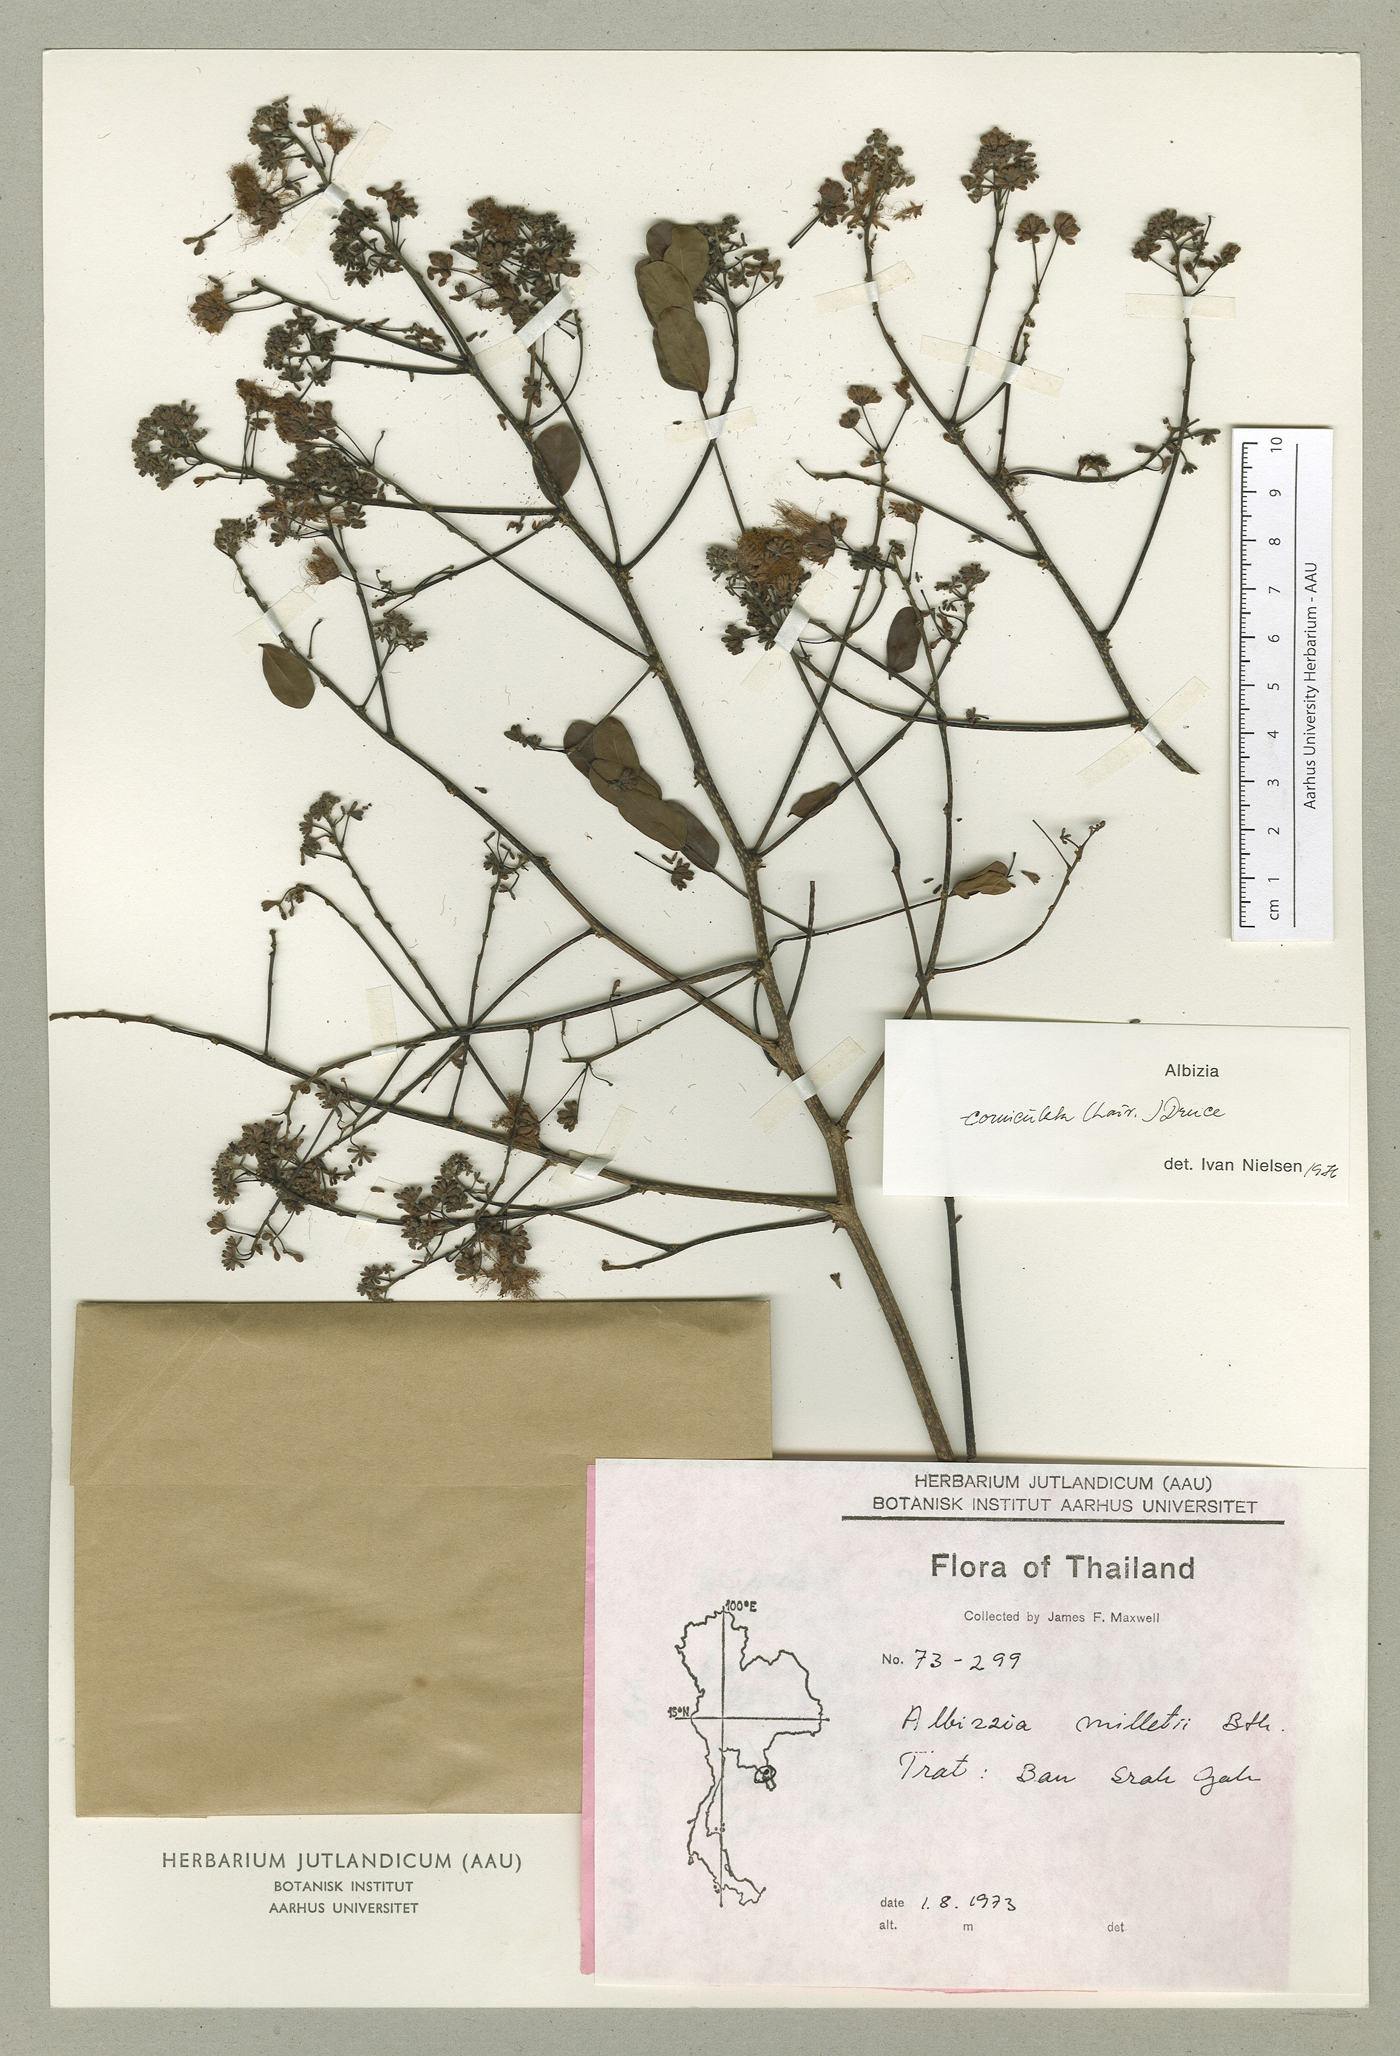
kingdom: Plantae
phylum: Tracheophyta
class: Magnoliopsida
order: Fabales
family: Fabaceae
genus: Albizia
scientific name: Albizia corniculata
